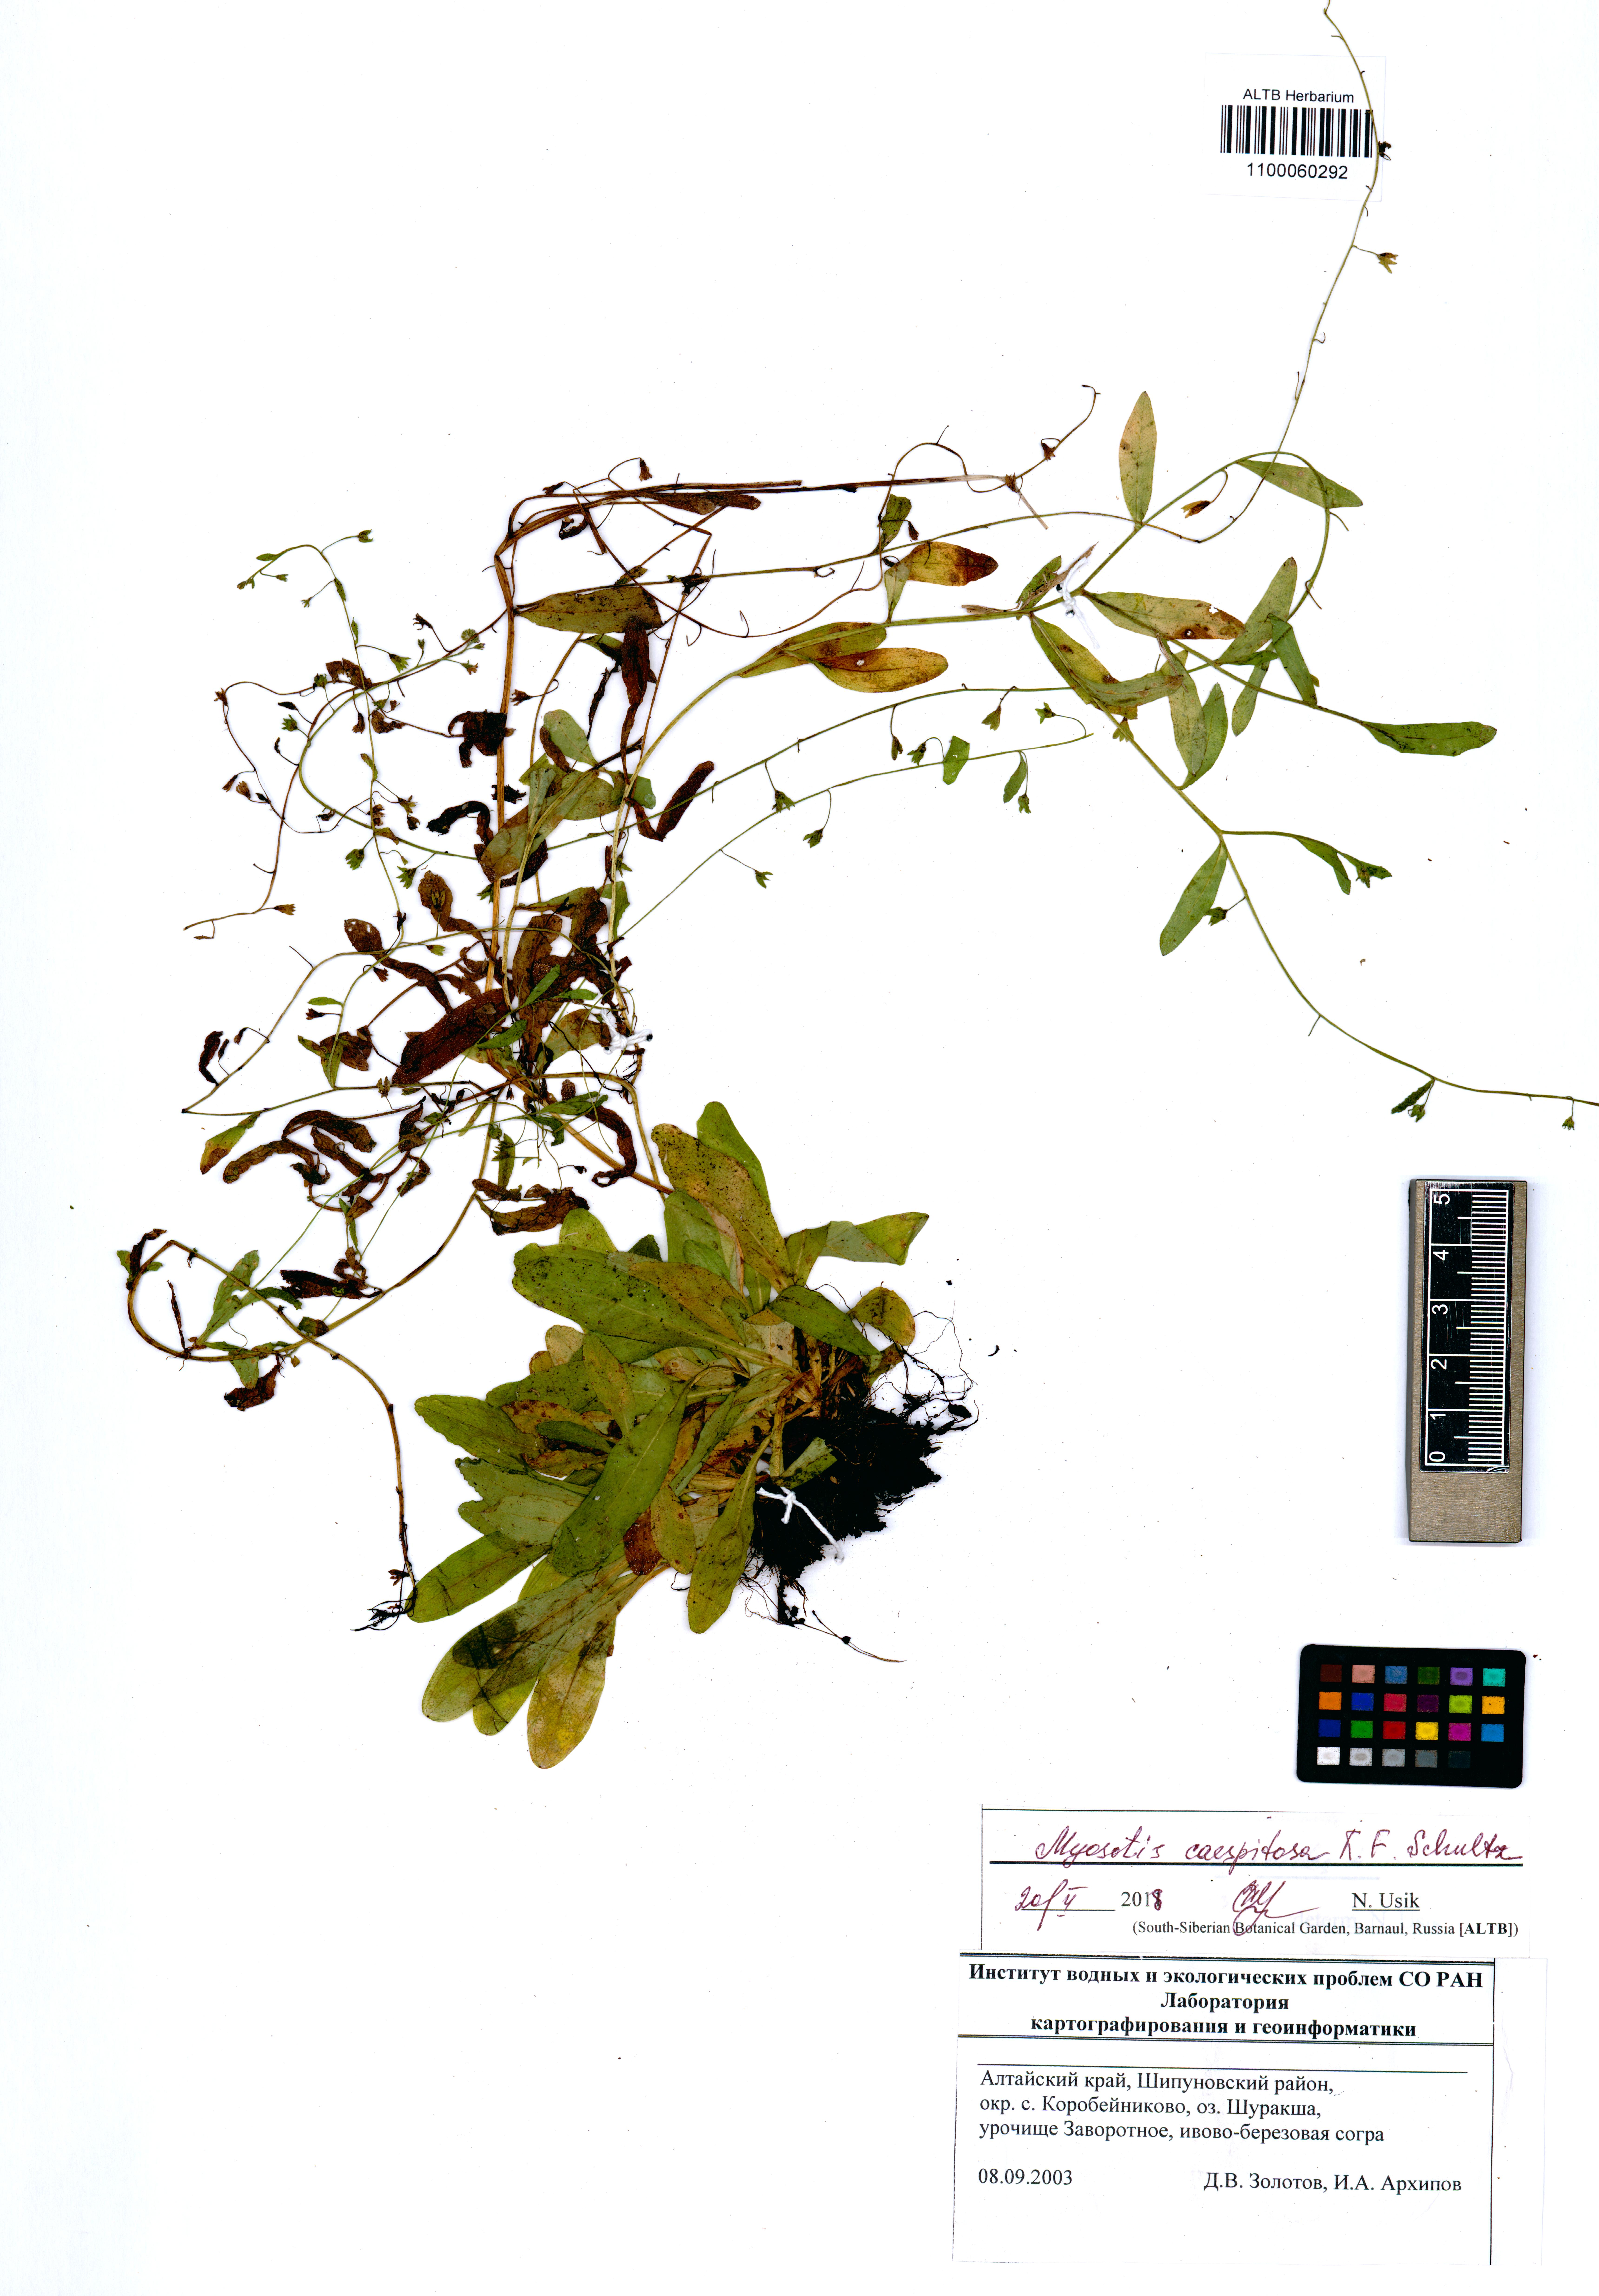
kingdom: Plantae
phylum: Tracheophyta
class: Magnoliopsida
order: Boraginales
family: Boraginaceae
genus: Myosotis
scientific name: Myosotis laxa
